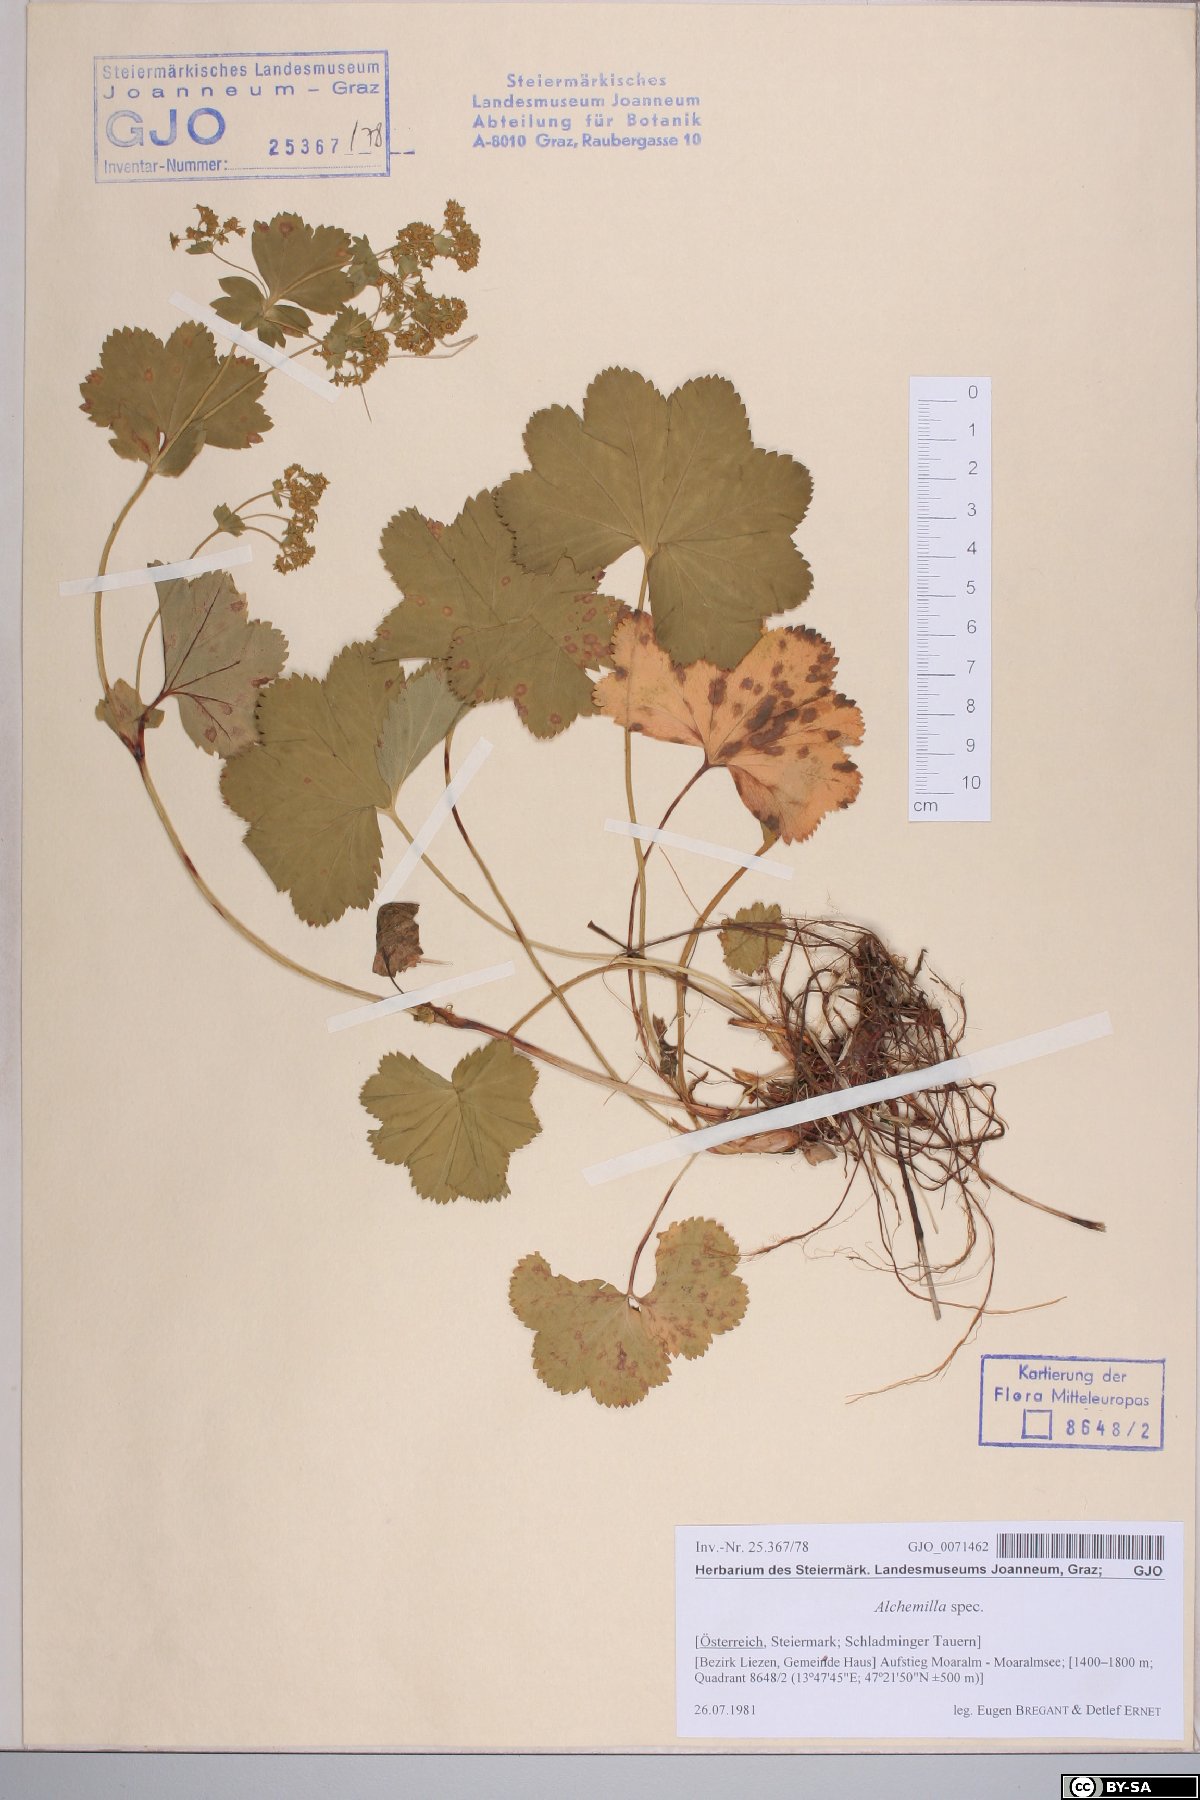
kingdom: Plantae
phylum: Tracheophyta
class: Magnoliopsida
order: Rosales
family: Rosaceae
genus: Alchemilla
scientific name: Alchemilla
